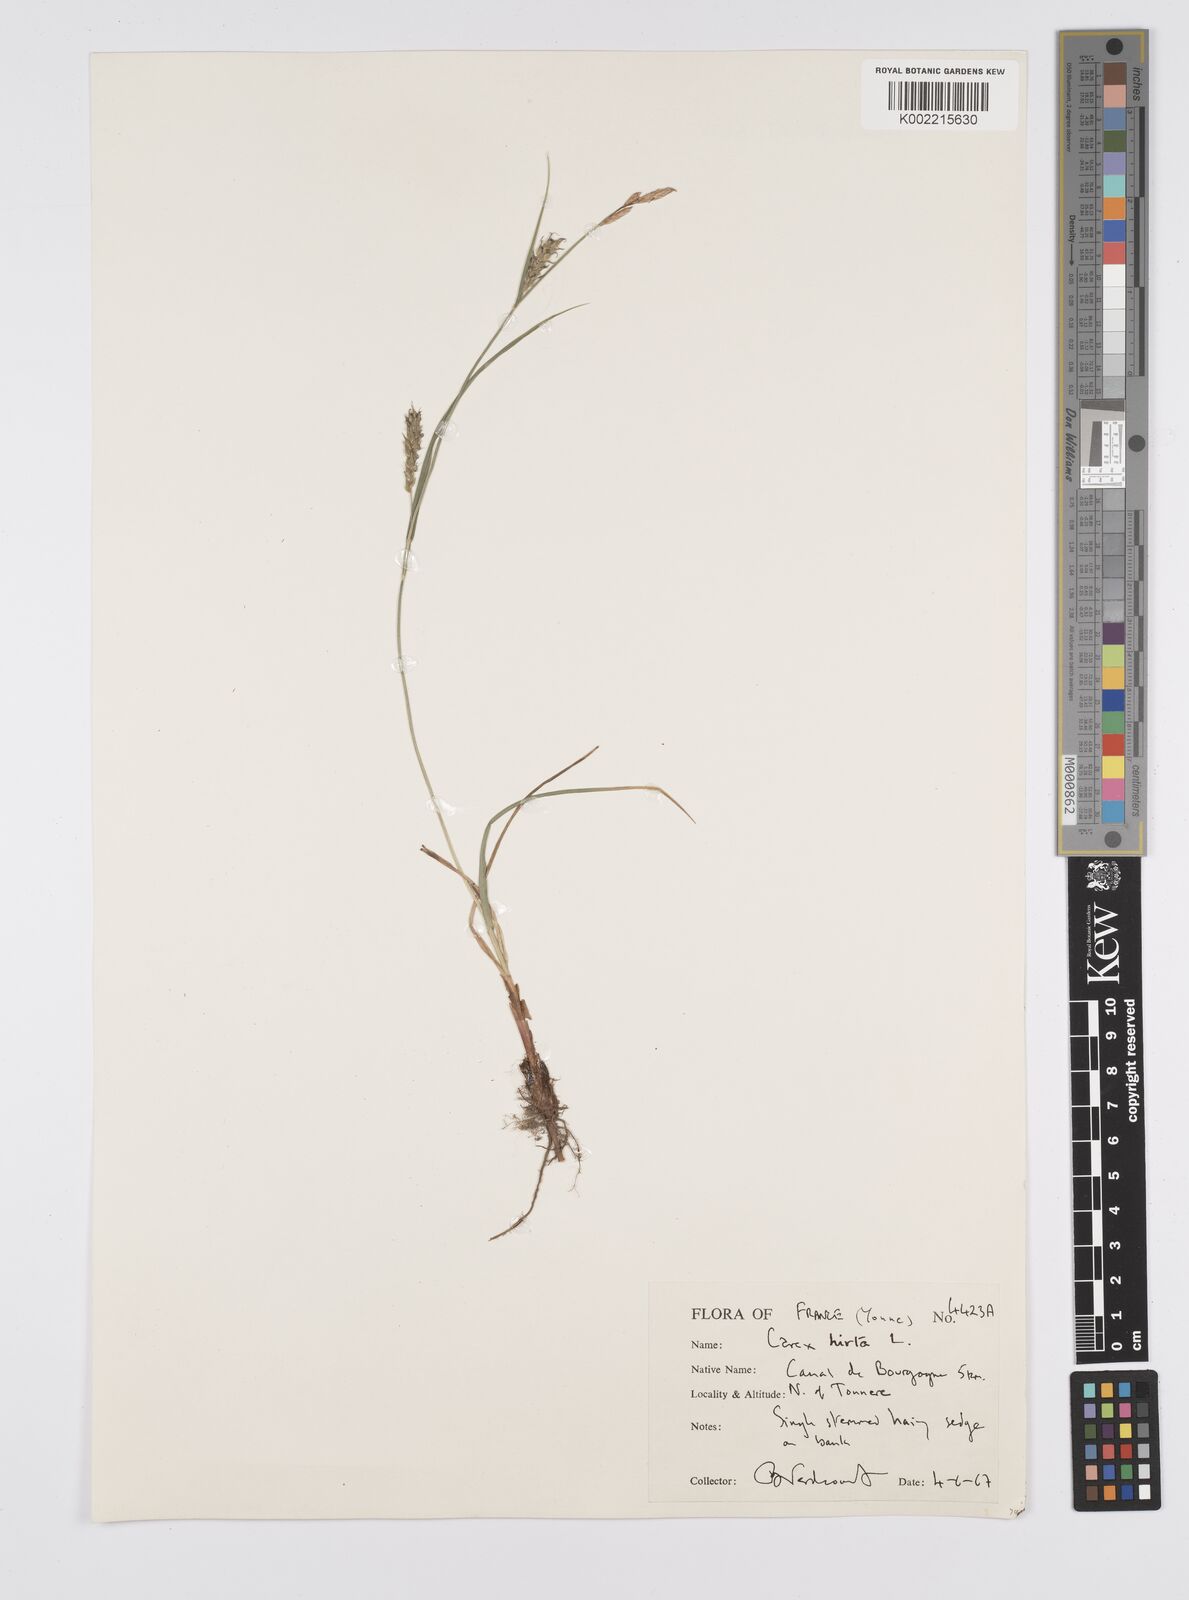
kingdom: Plantae
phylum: Tracheophyta
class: Liliopsida
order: Poales
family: Cyperaceae
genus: Carex
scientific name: Carex hirta
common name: Hairy sedge
